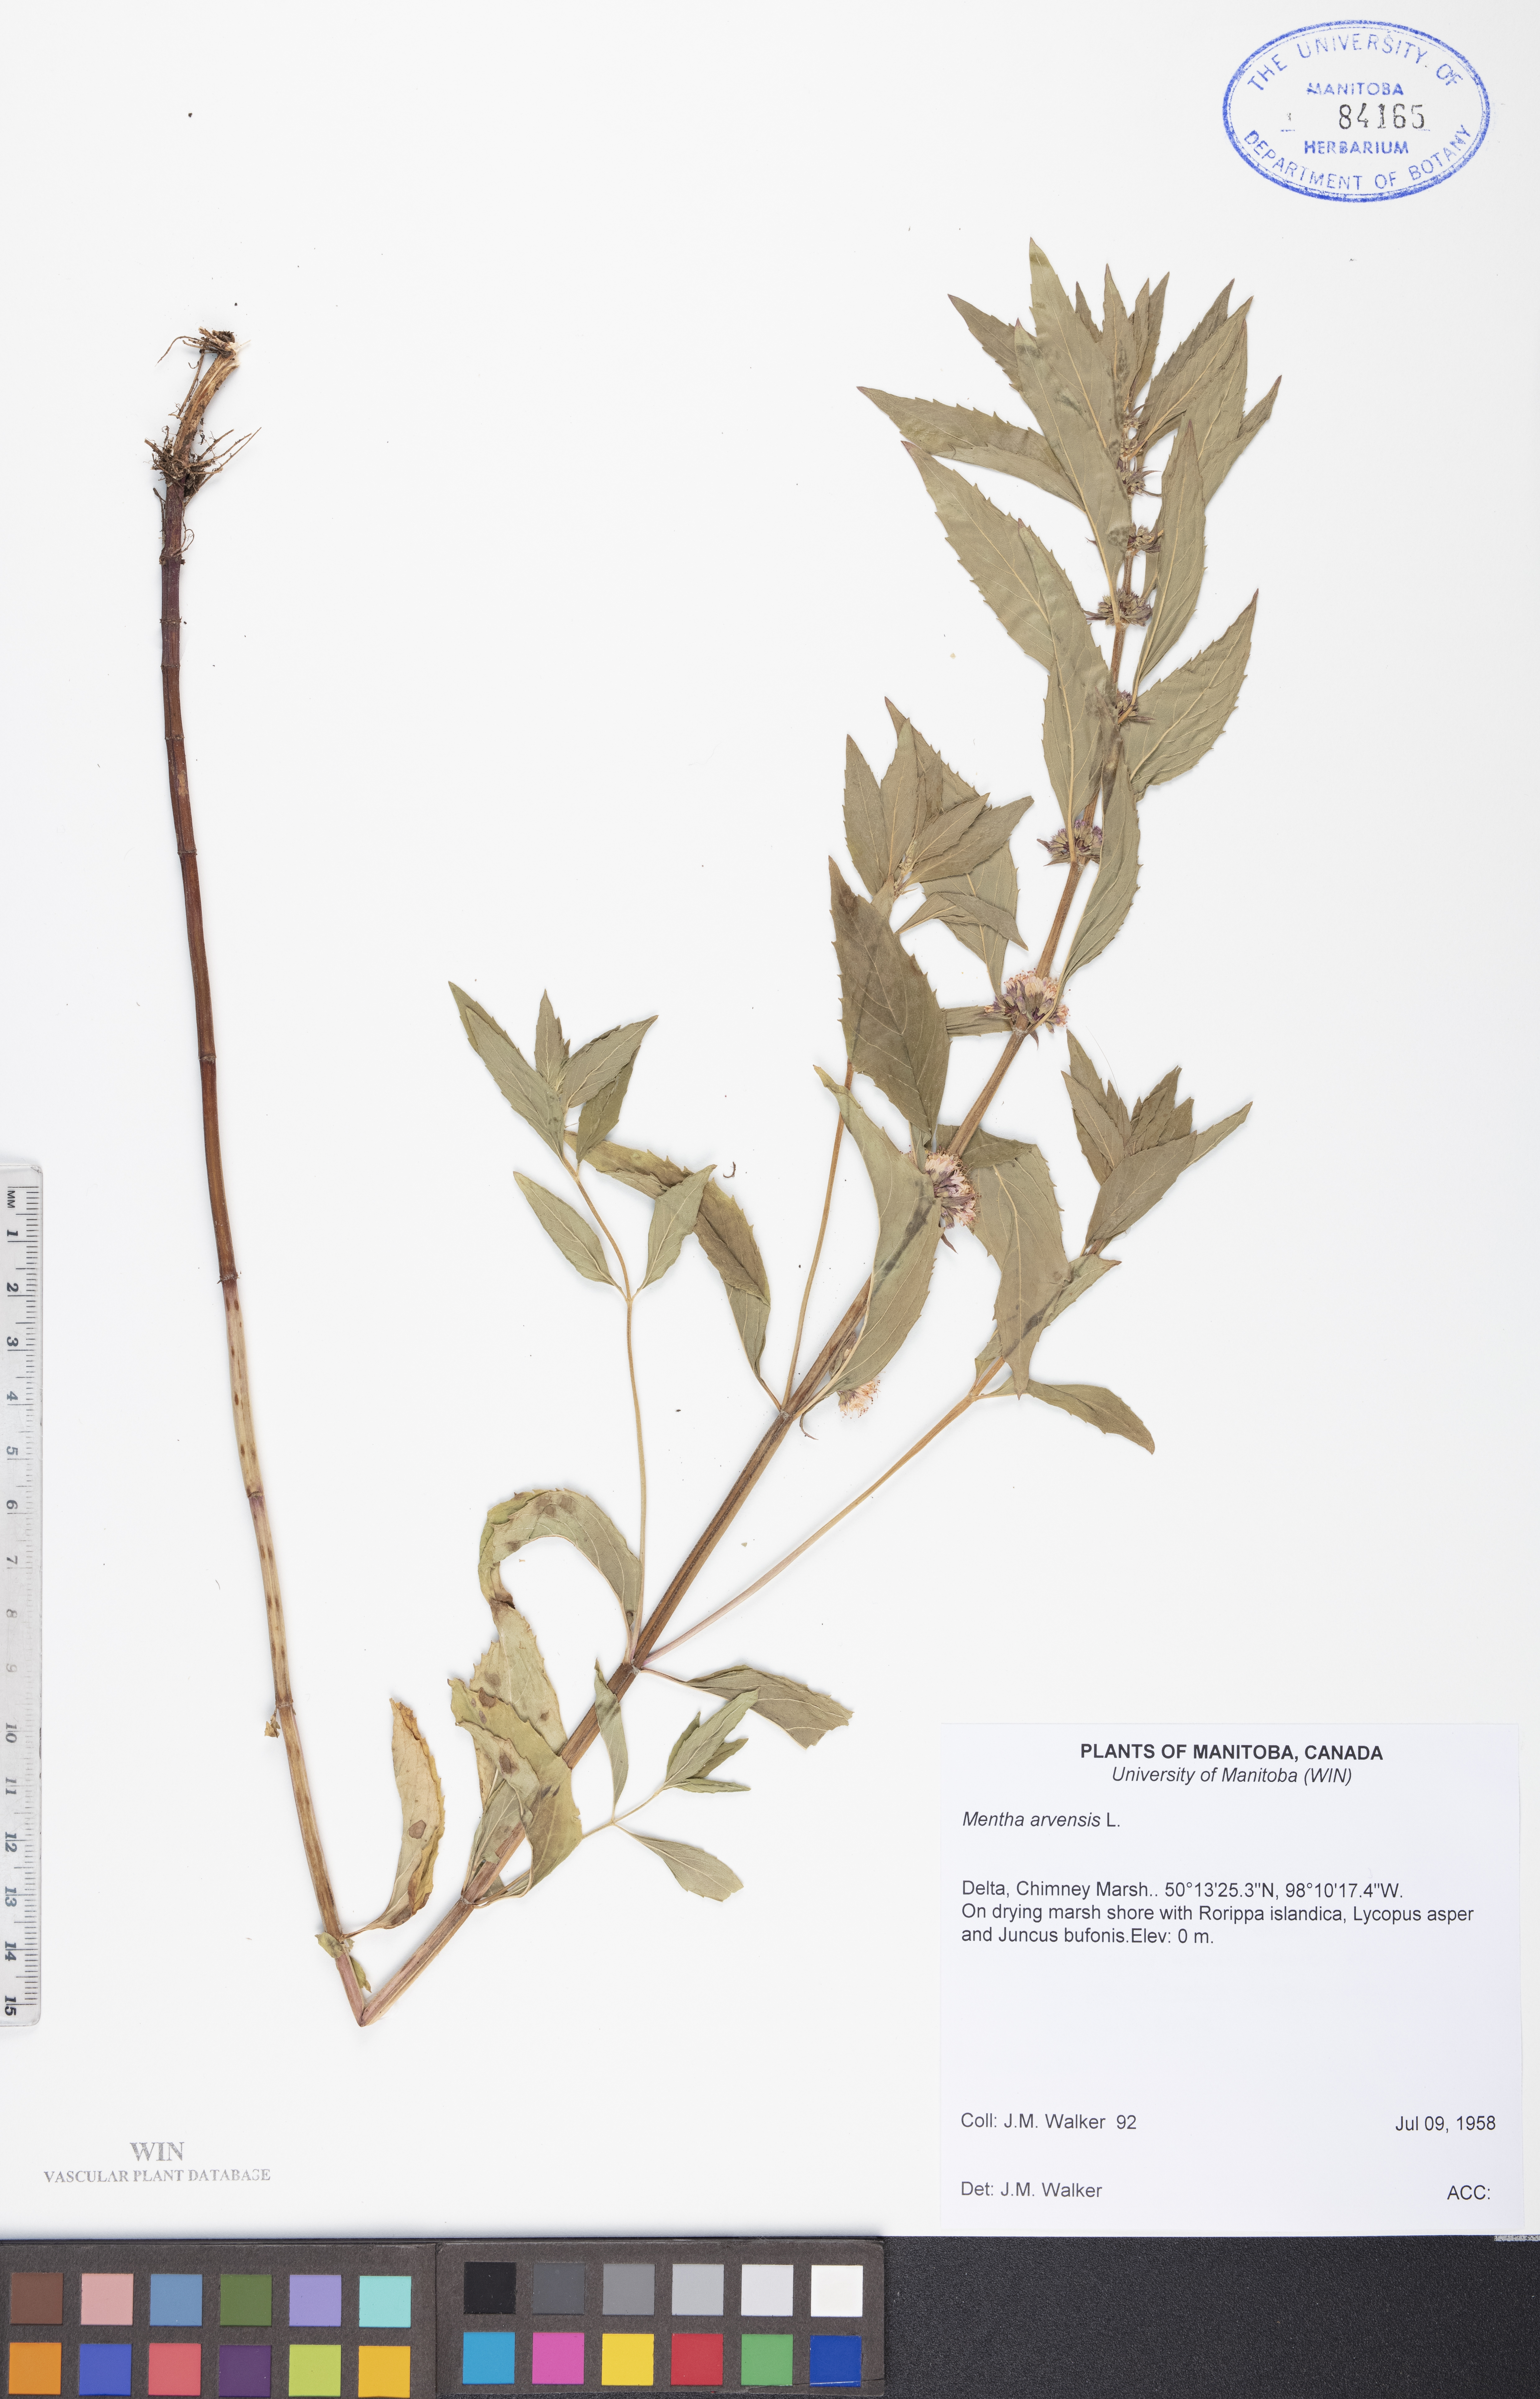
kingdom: Plantae
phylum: Tracheophyta
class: Magnoliopsida
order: Lamiales
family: Lamiaceae
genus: Mentha
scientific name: Mentha arvensis
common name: Corn mint
